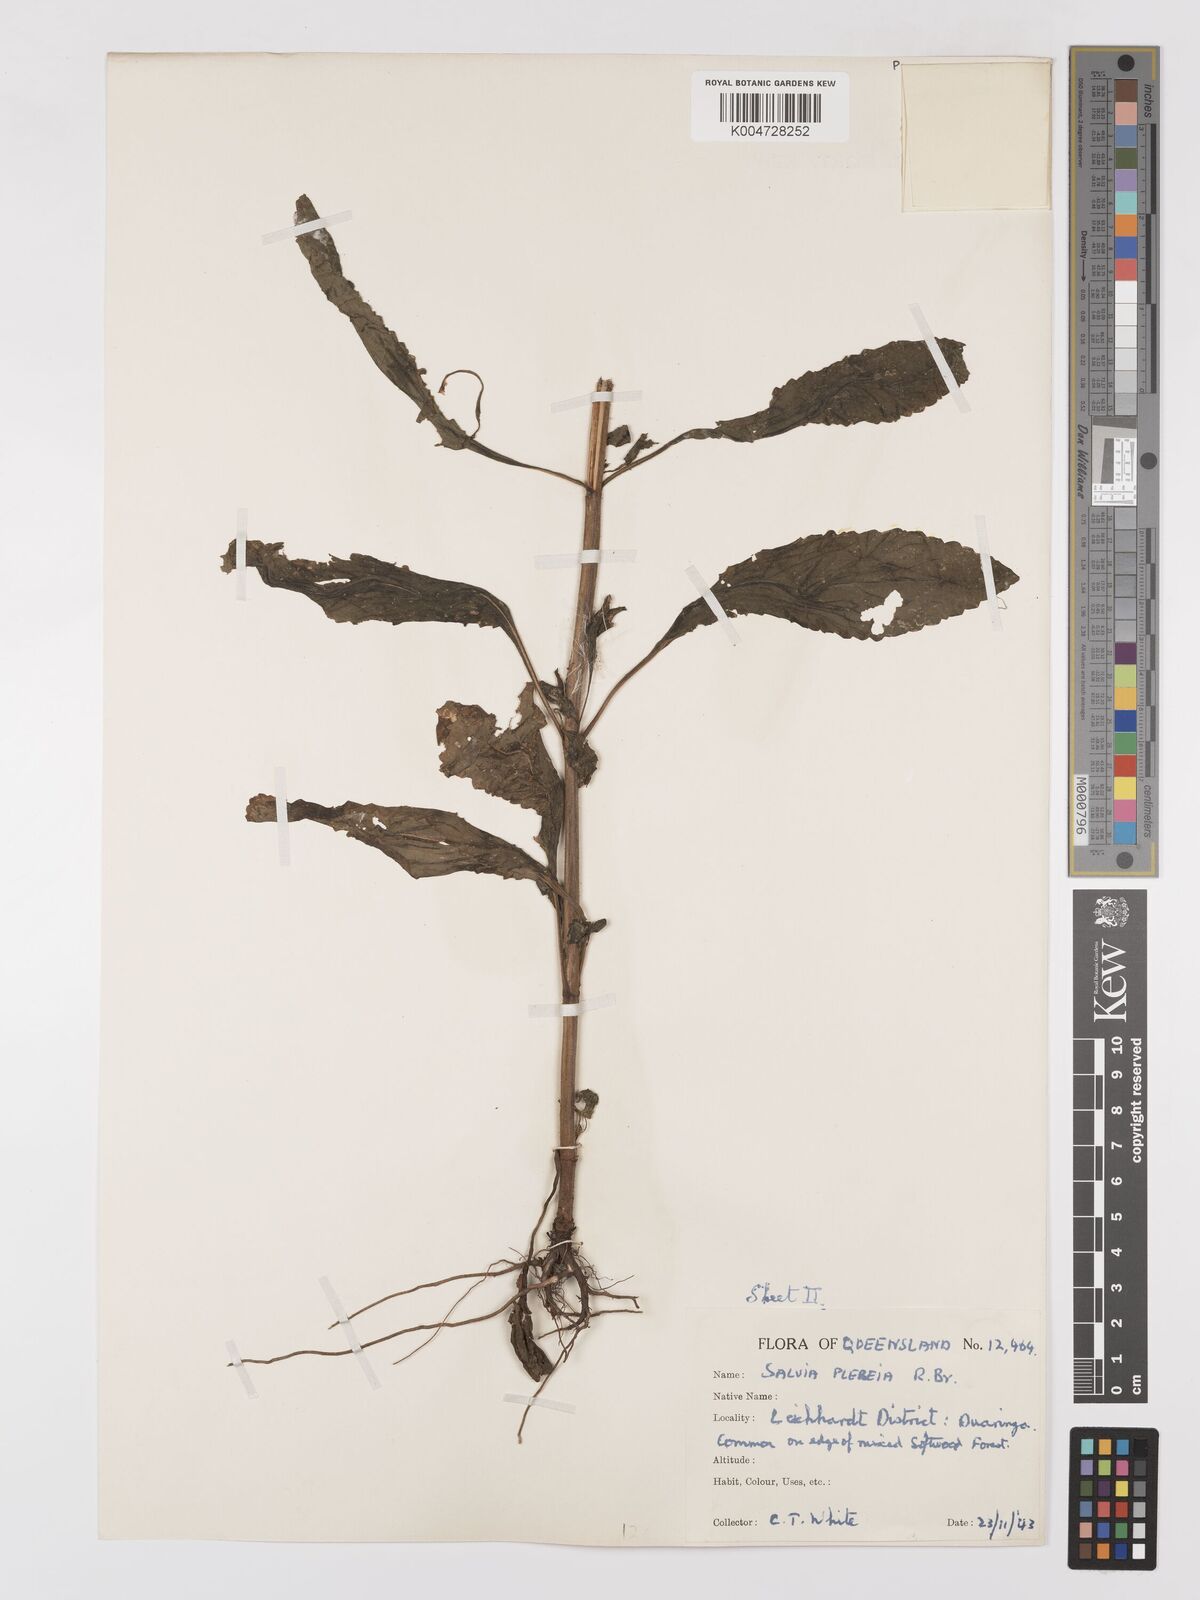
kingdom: Plantae
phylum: Tracheophyta
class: Magnoliopsida
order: Lamiales
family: Lamiaceae
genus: Salvia
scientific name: Salvia plebeia
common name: Australian sage
